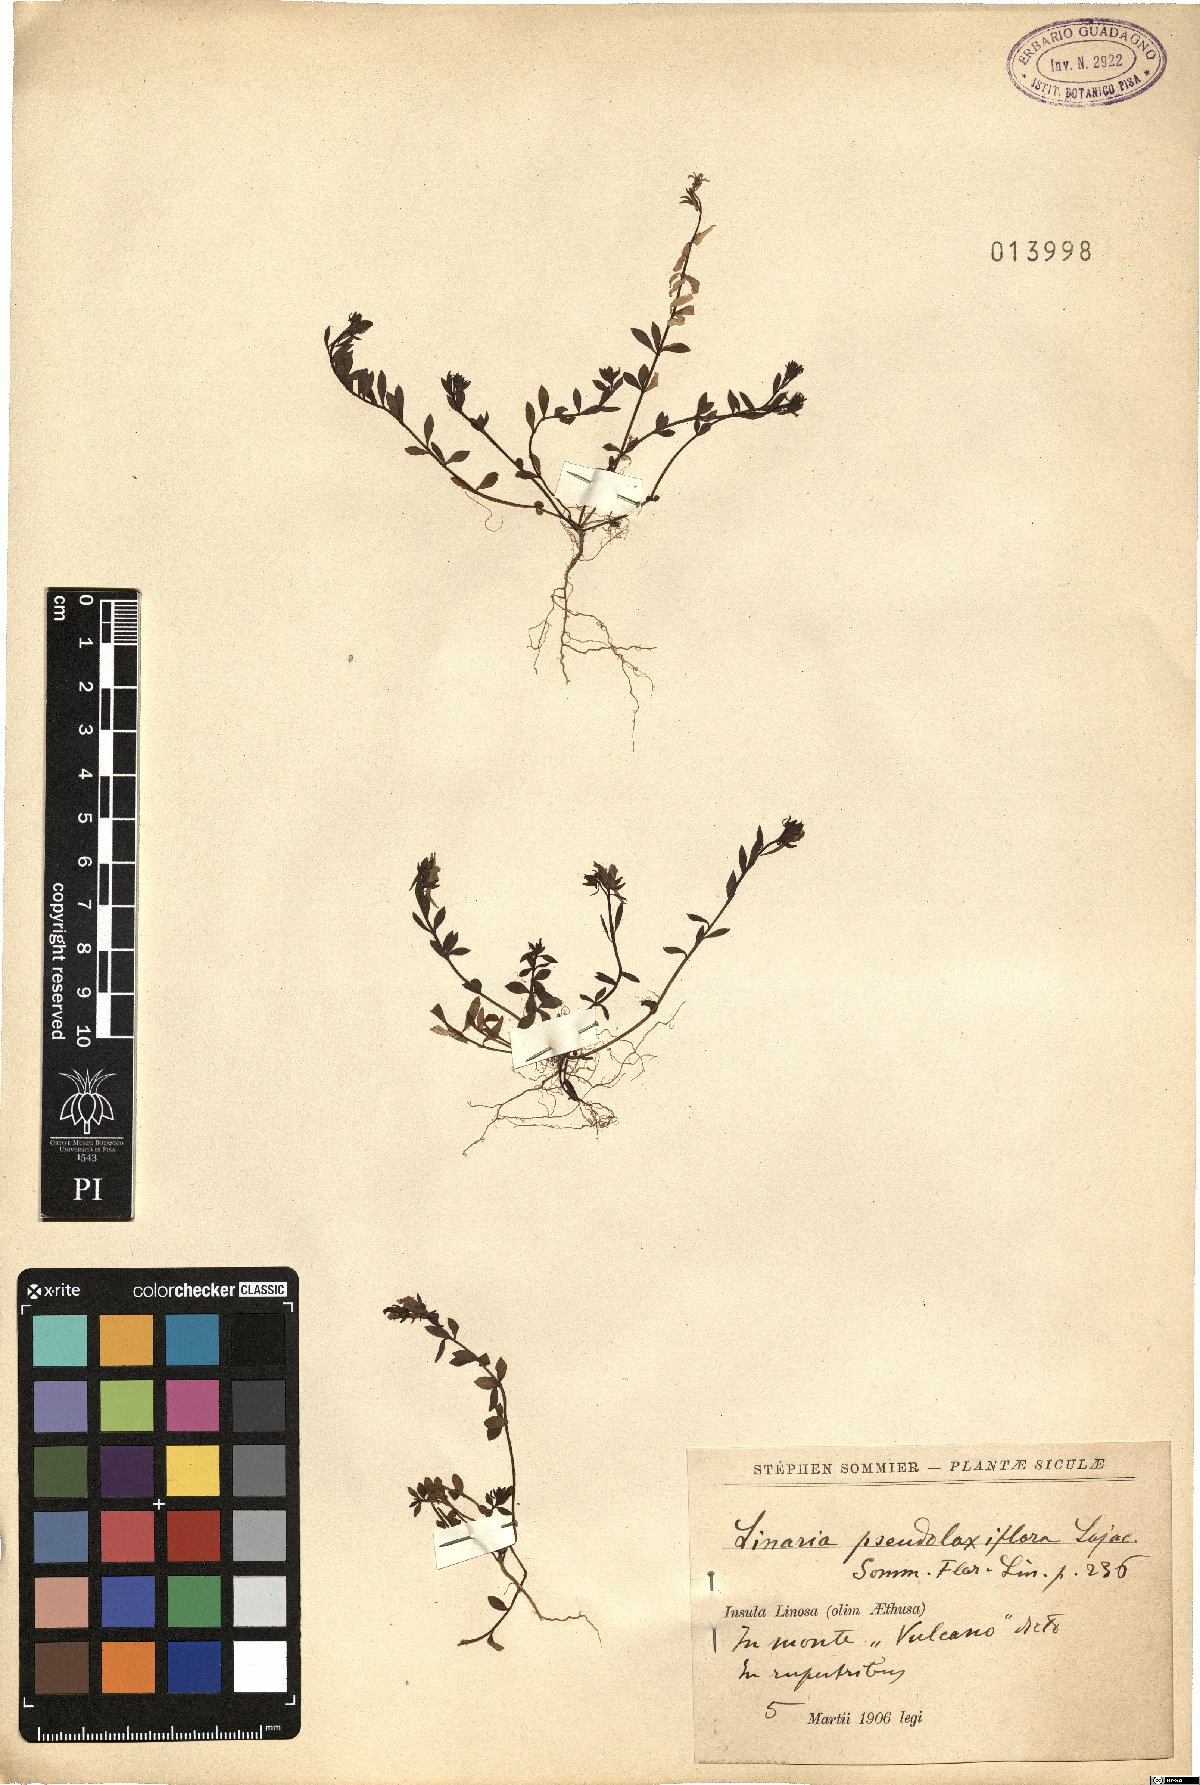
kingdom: Plantae
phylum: Tracheophyta
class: Magnoliopsida
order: Lamiales
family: Plantaginaceae
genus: Linaria
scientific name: Linaria pseudolaxiflora
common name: Maltese toadflax
